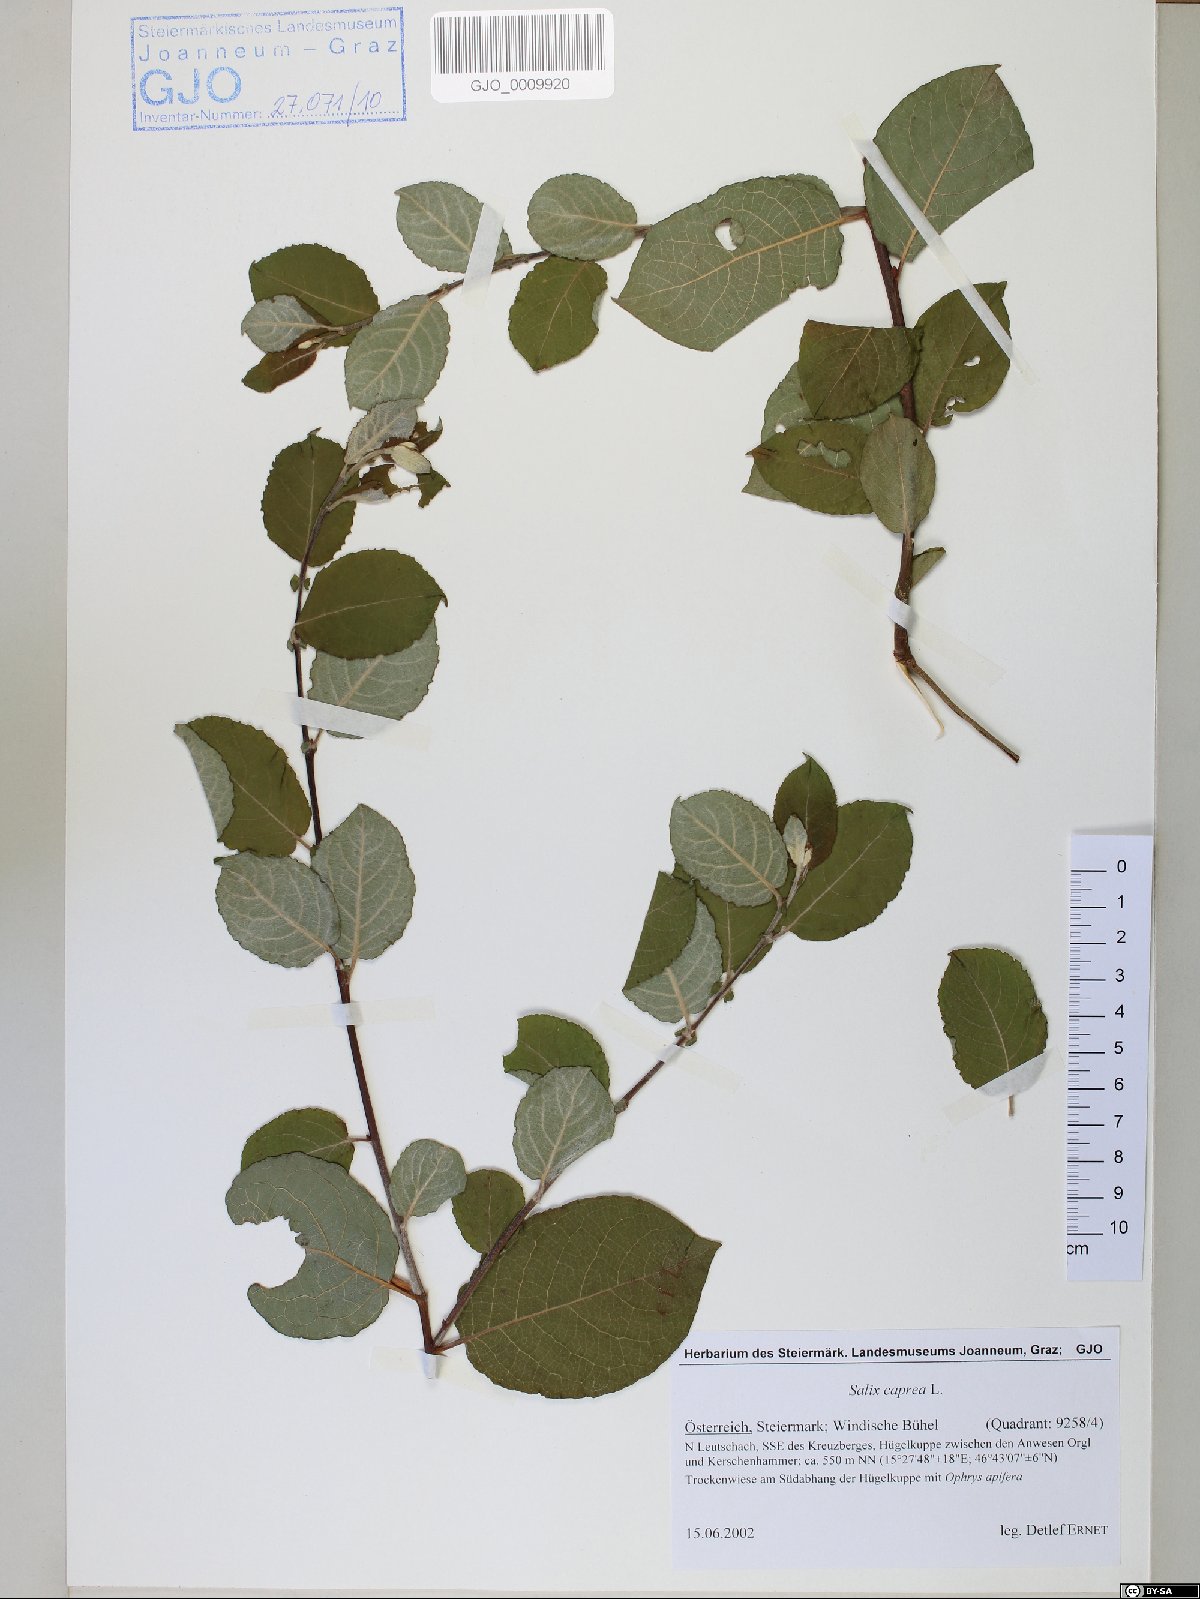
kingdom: Plantae
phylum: Tracheophyta
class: Magnoliopsida
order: Malpighiales
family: Salicaceae
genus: Salix
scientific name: Salix caprea
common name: Goat willow
